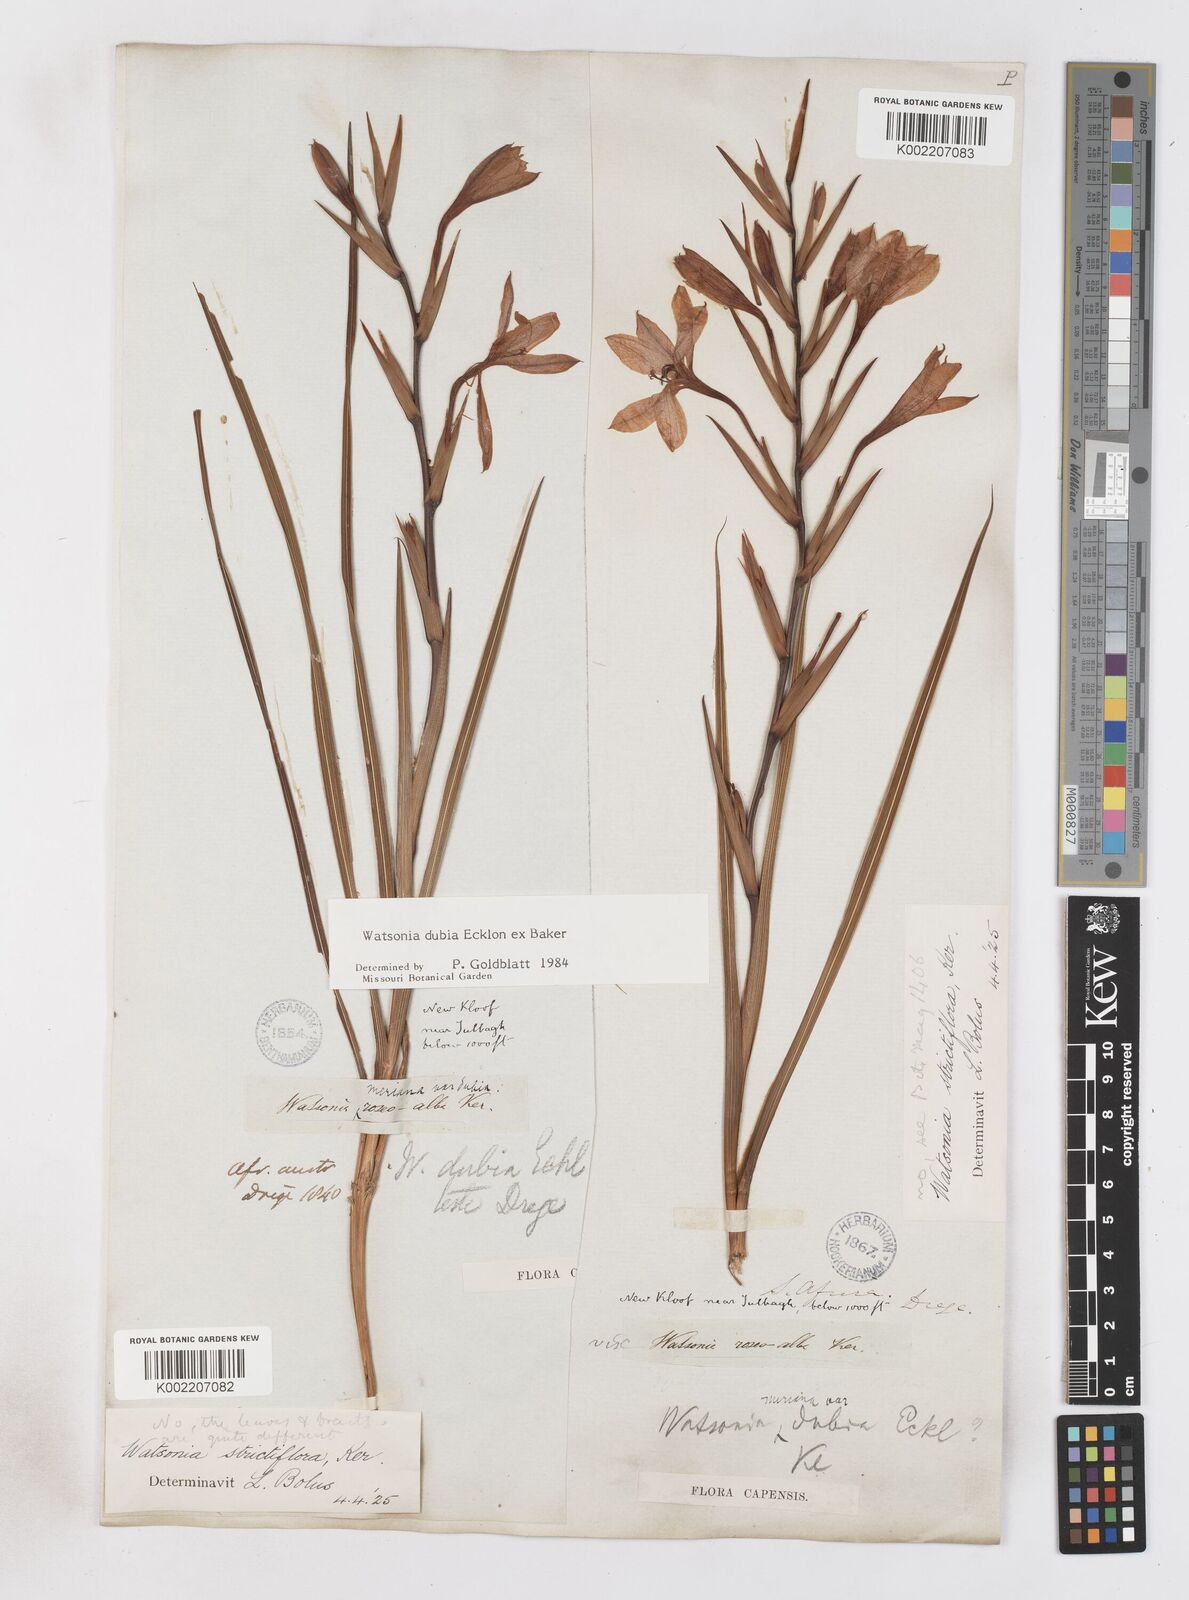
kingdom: Plantae
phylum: Tracheophyta
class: Liliopsida
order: Asparagales
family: Iridaceae
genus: Watsonia
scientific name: Watsonia dubia
